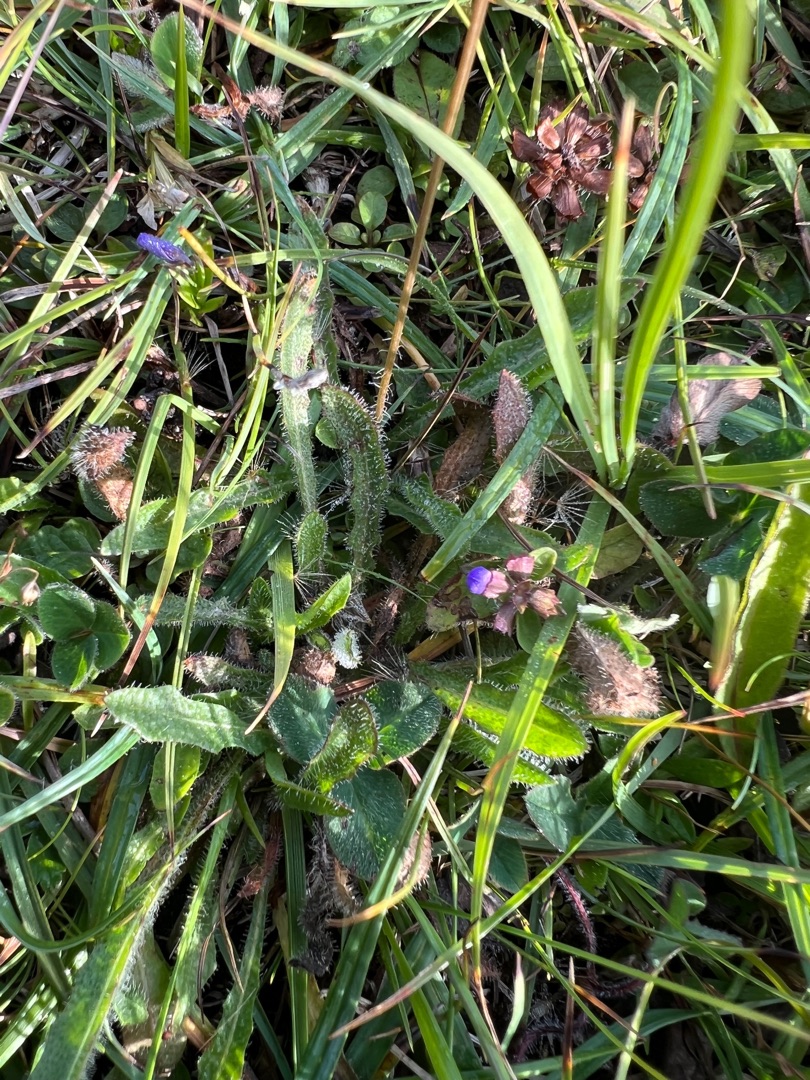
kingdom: Plantae
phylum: Tracheophyta
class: Magnoliopsida
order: Asterales
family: Asteraceae
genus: Thrincia
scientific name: Thrincia saxatilis
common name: Hundesalat
